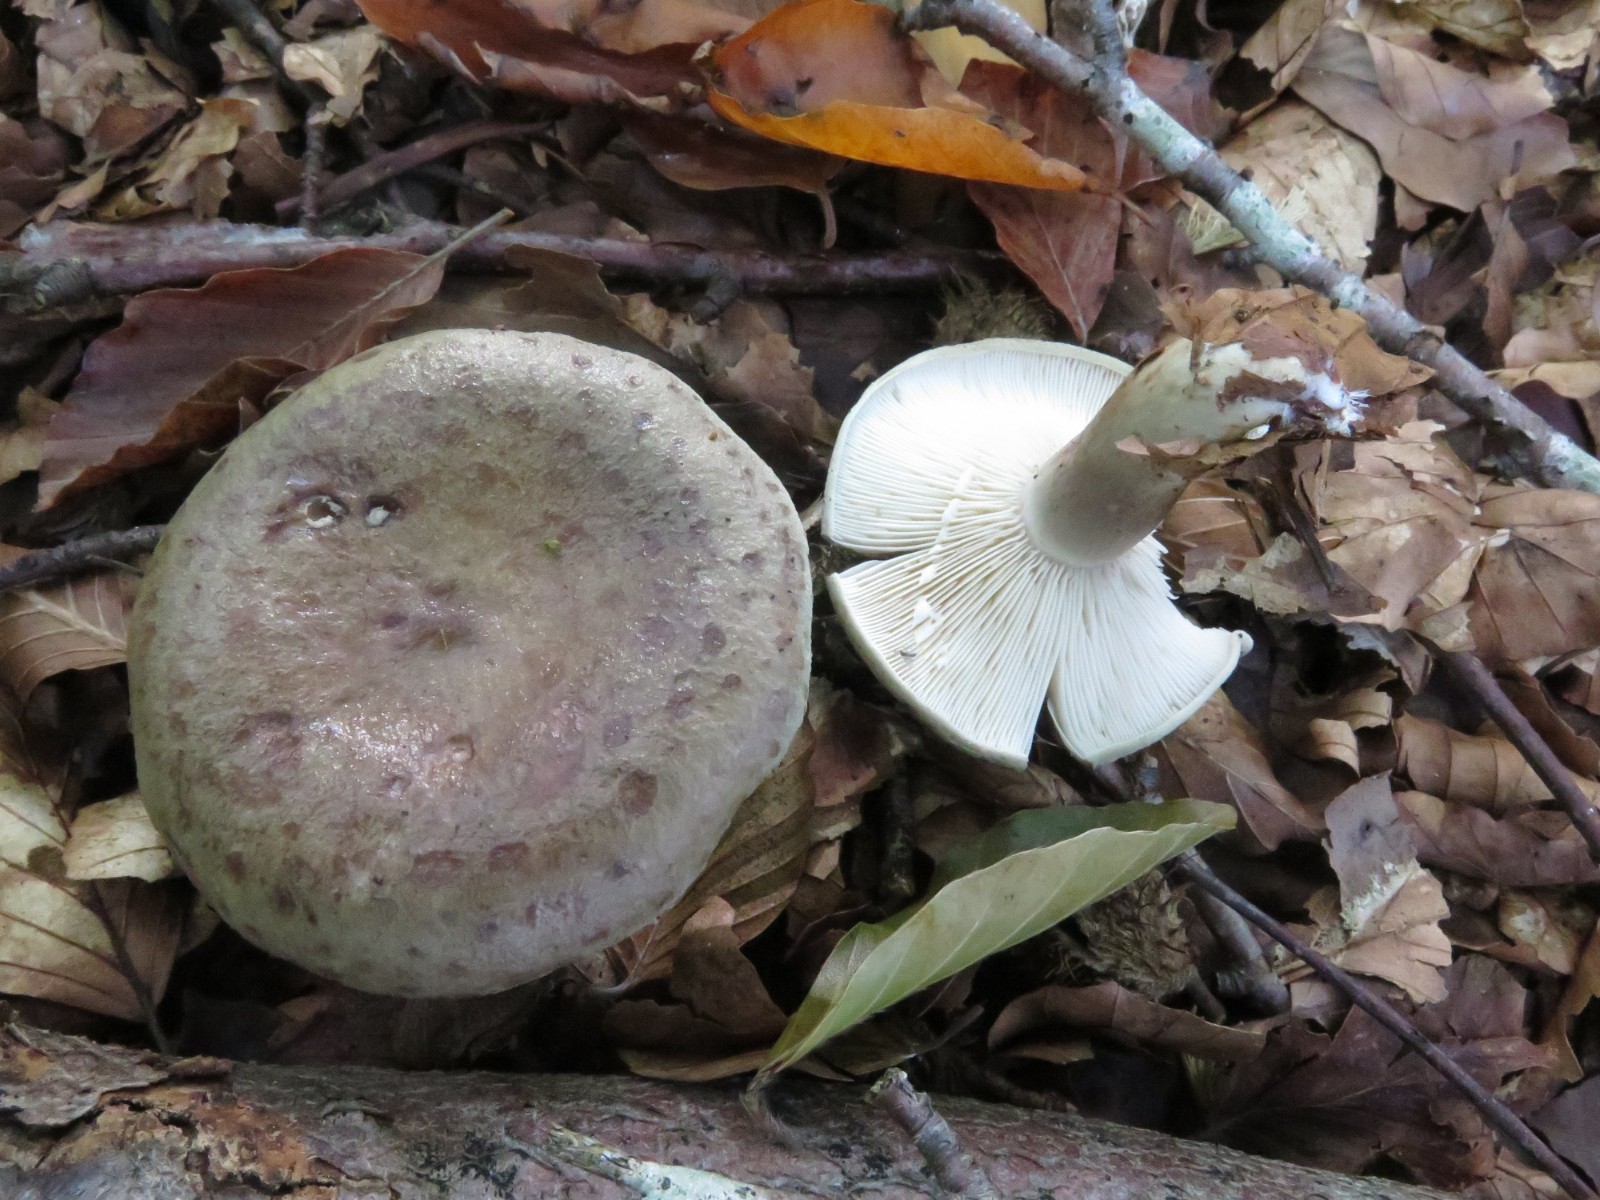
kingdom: Fungi
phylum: Basidiomycota
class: Agaricomycetes
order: Russulales
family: Russulaceae
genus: Lactarius
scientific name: Lactarius blennius
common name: dråbeplettet mælkehat
